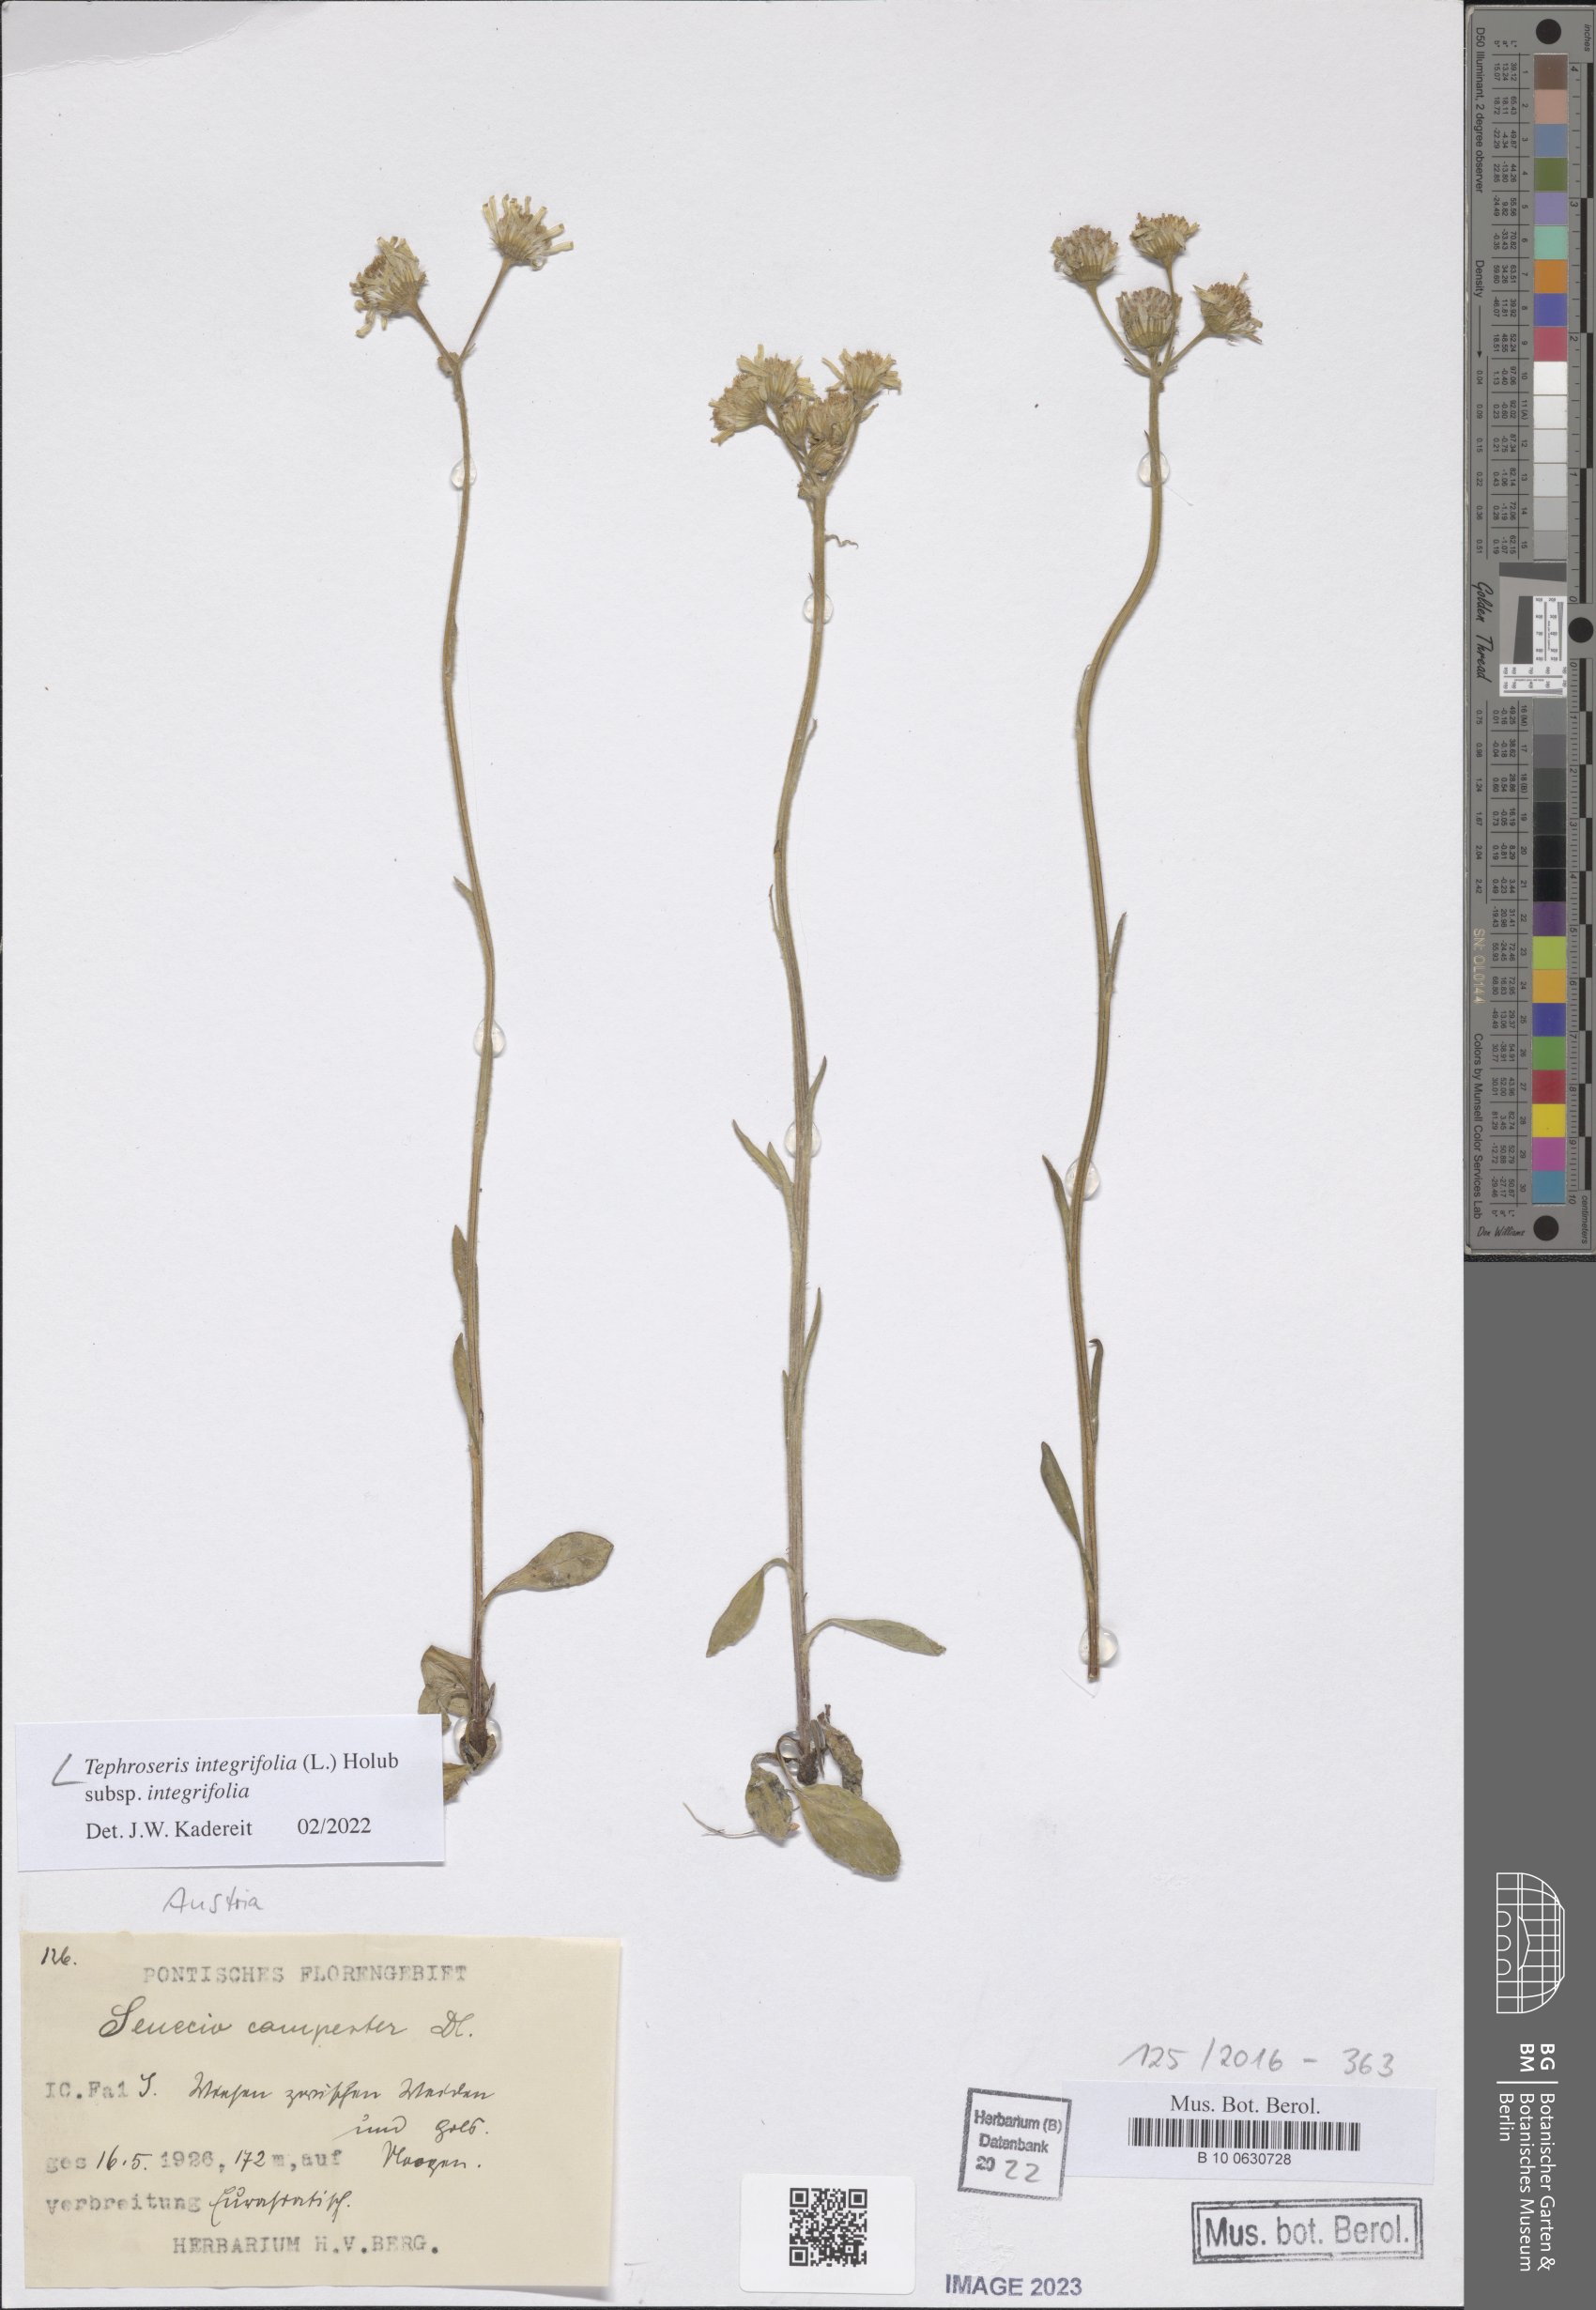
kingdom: Plantae
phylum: Tracheophyta
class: Magnoliopsida
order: Asterales
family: Asteraceae
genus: Tephroseris
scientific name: Tephroseris integrifolia
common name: Field fleawort
